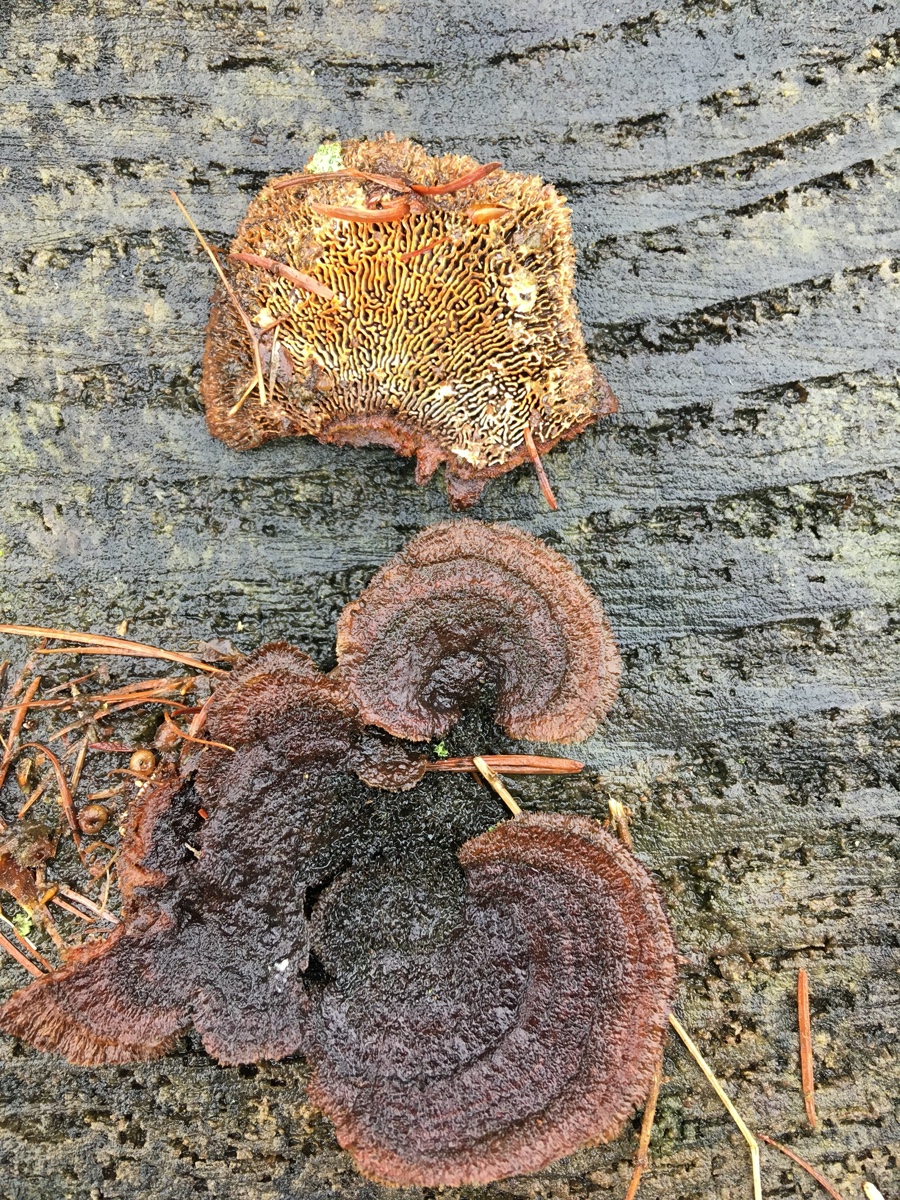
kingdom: Fungi
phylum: Basidiomycota
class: Agaricomycetes
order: Gloeophyllales
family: Gloeophyllaceae
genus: Gloeophyllum
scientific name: Gloeophyllum sepiarium
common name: fyrre-korkhat
